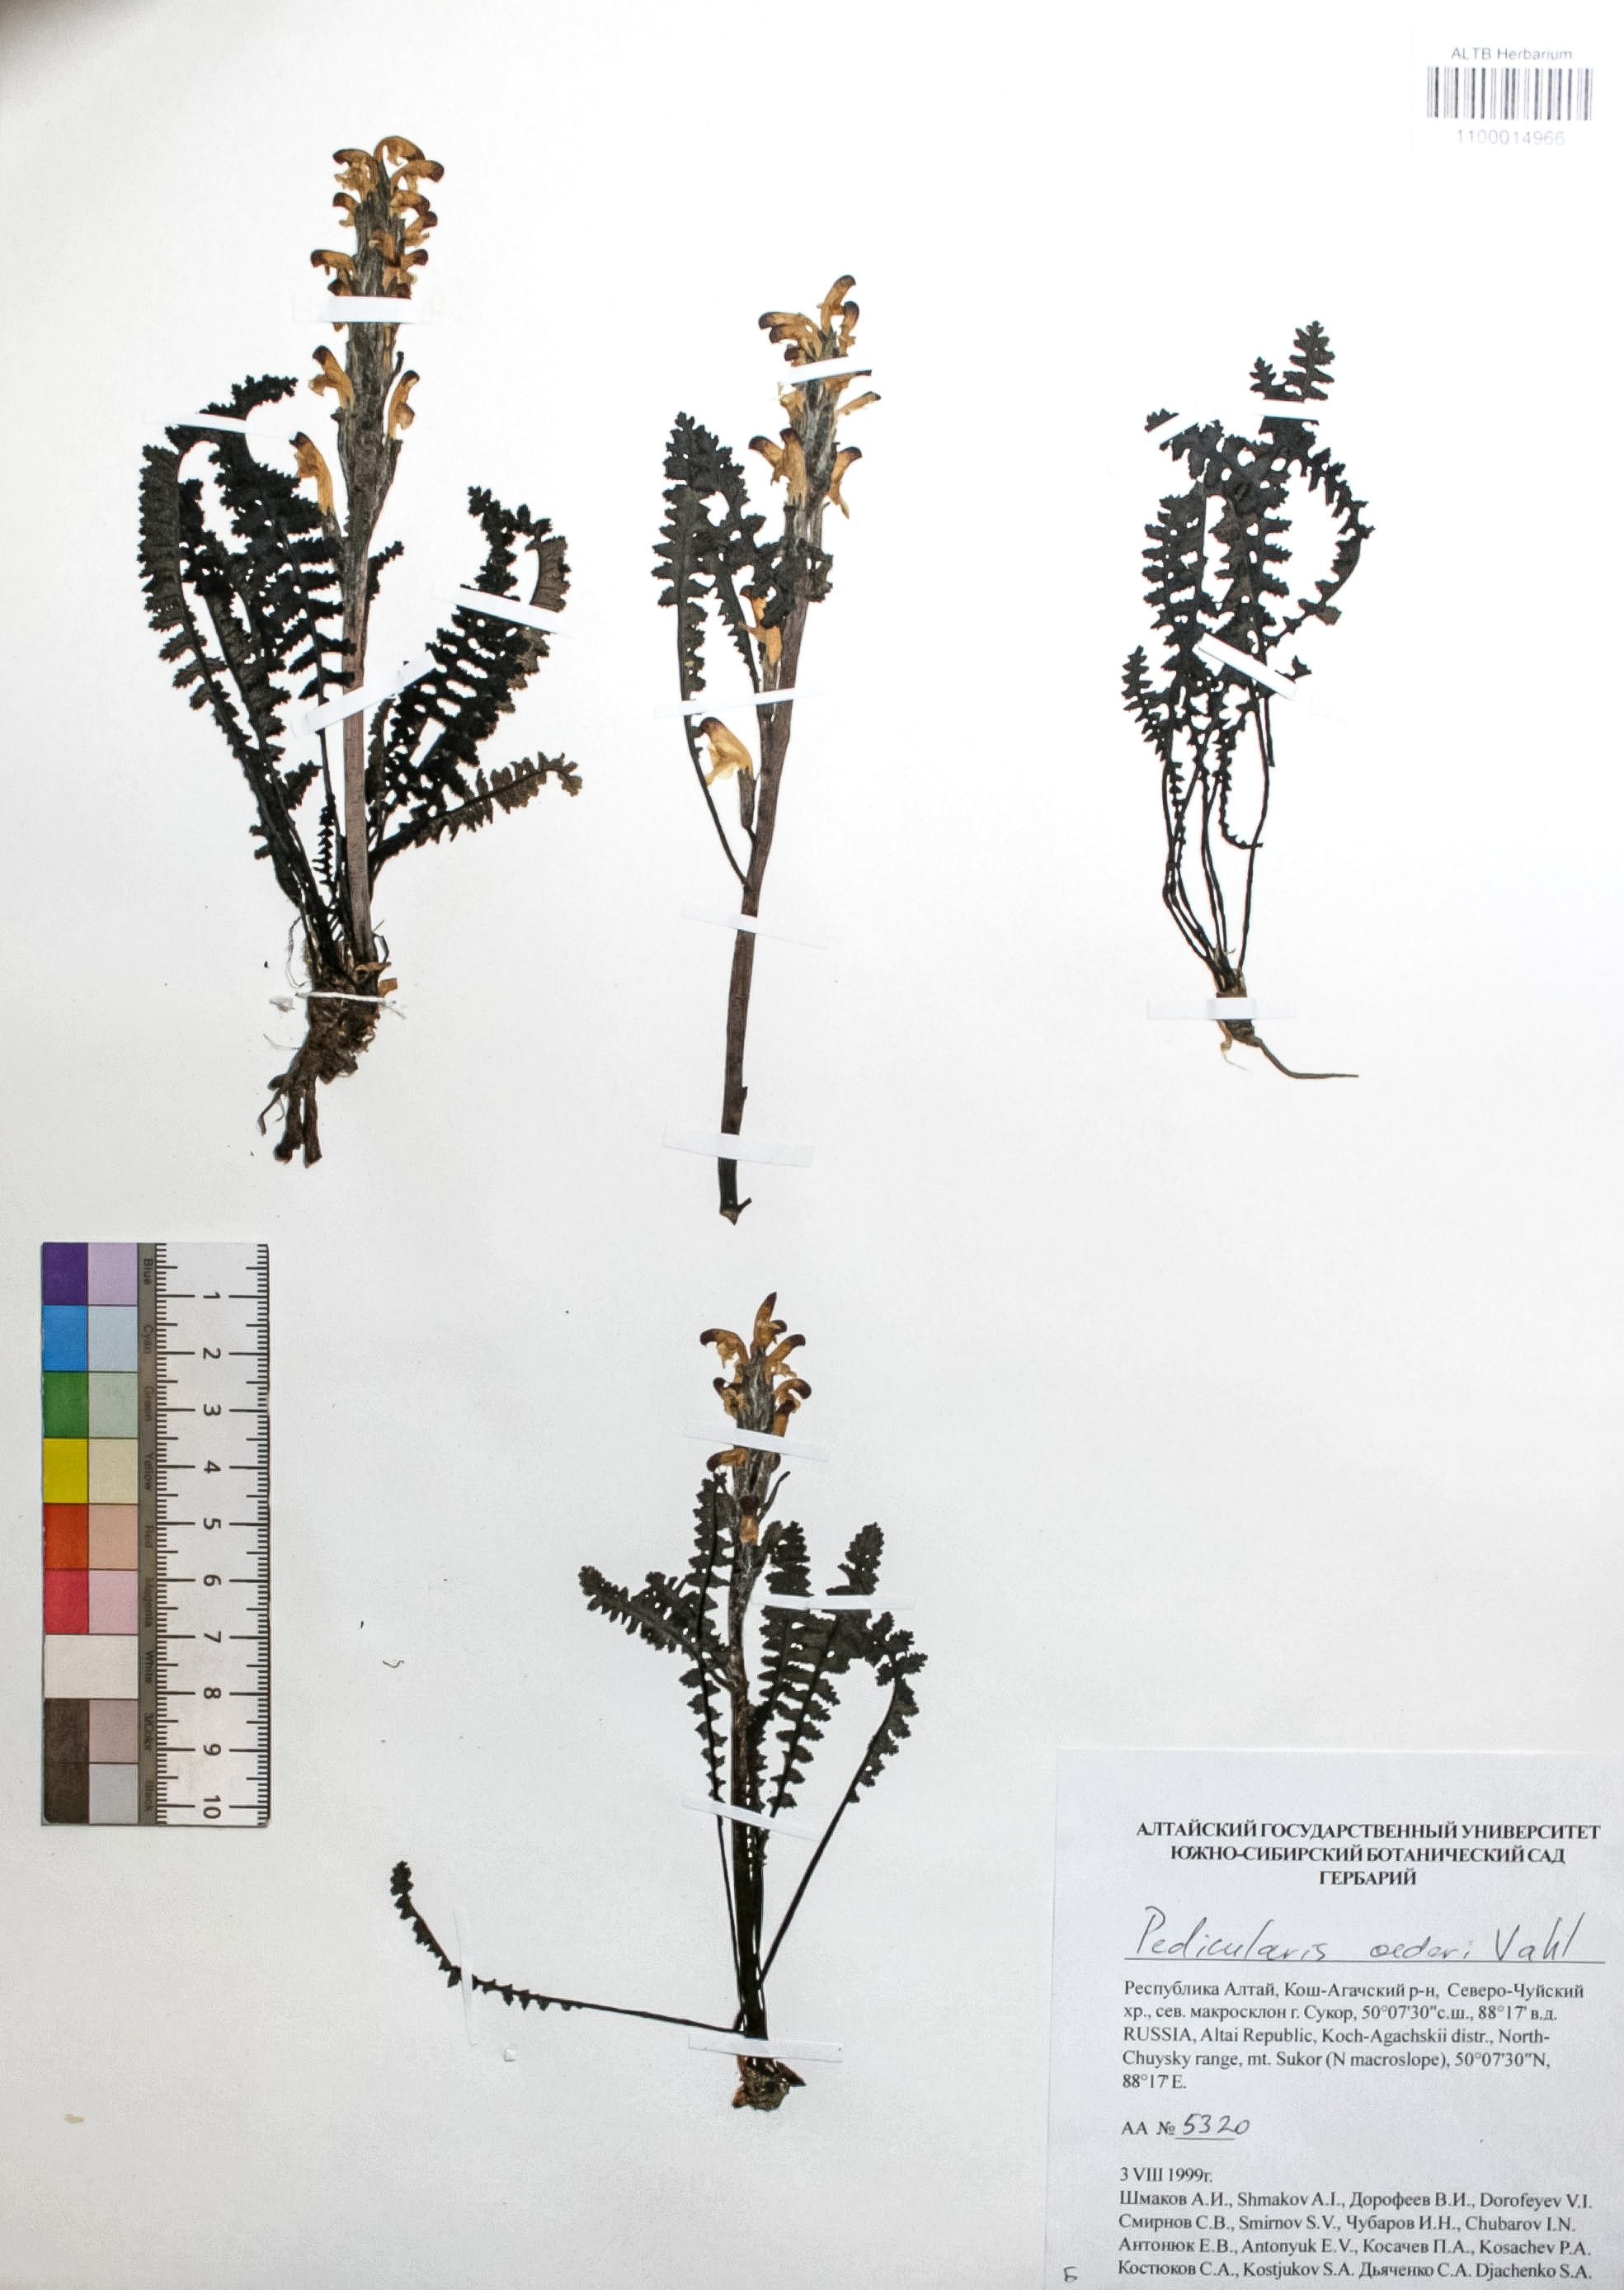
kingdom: Plantae
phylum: Tracheophyta
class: Magnoliopsida
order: Caryophyllales
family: Caryophyllaceae
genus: Silene
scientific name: Silene graminifolia
